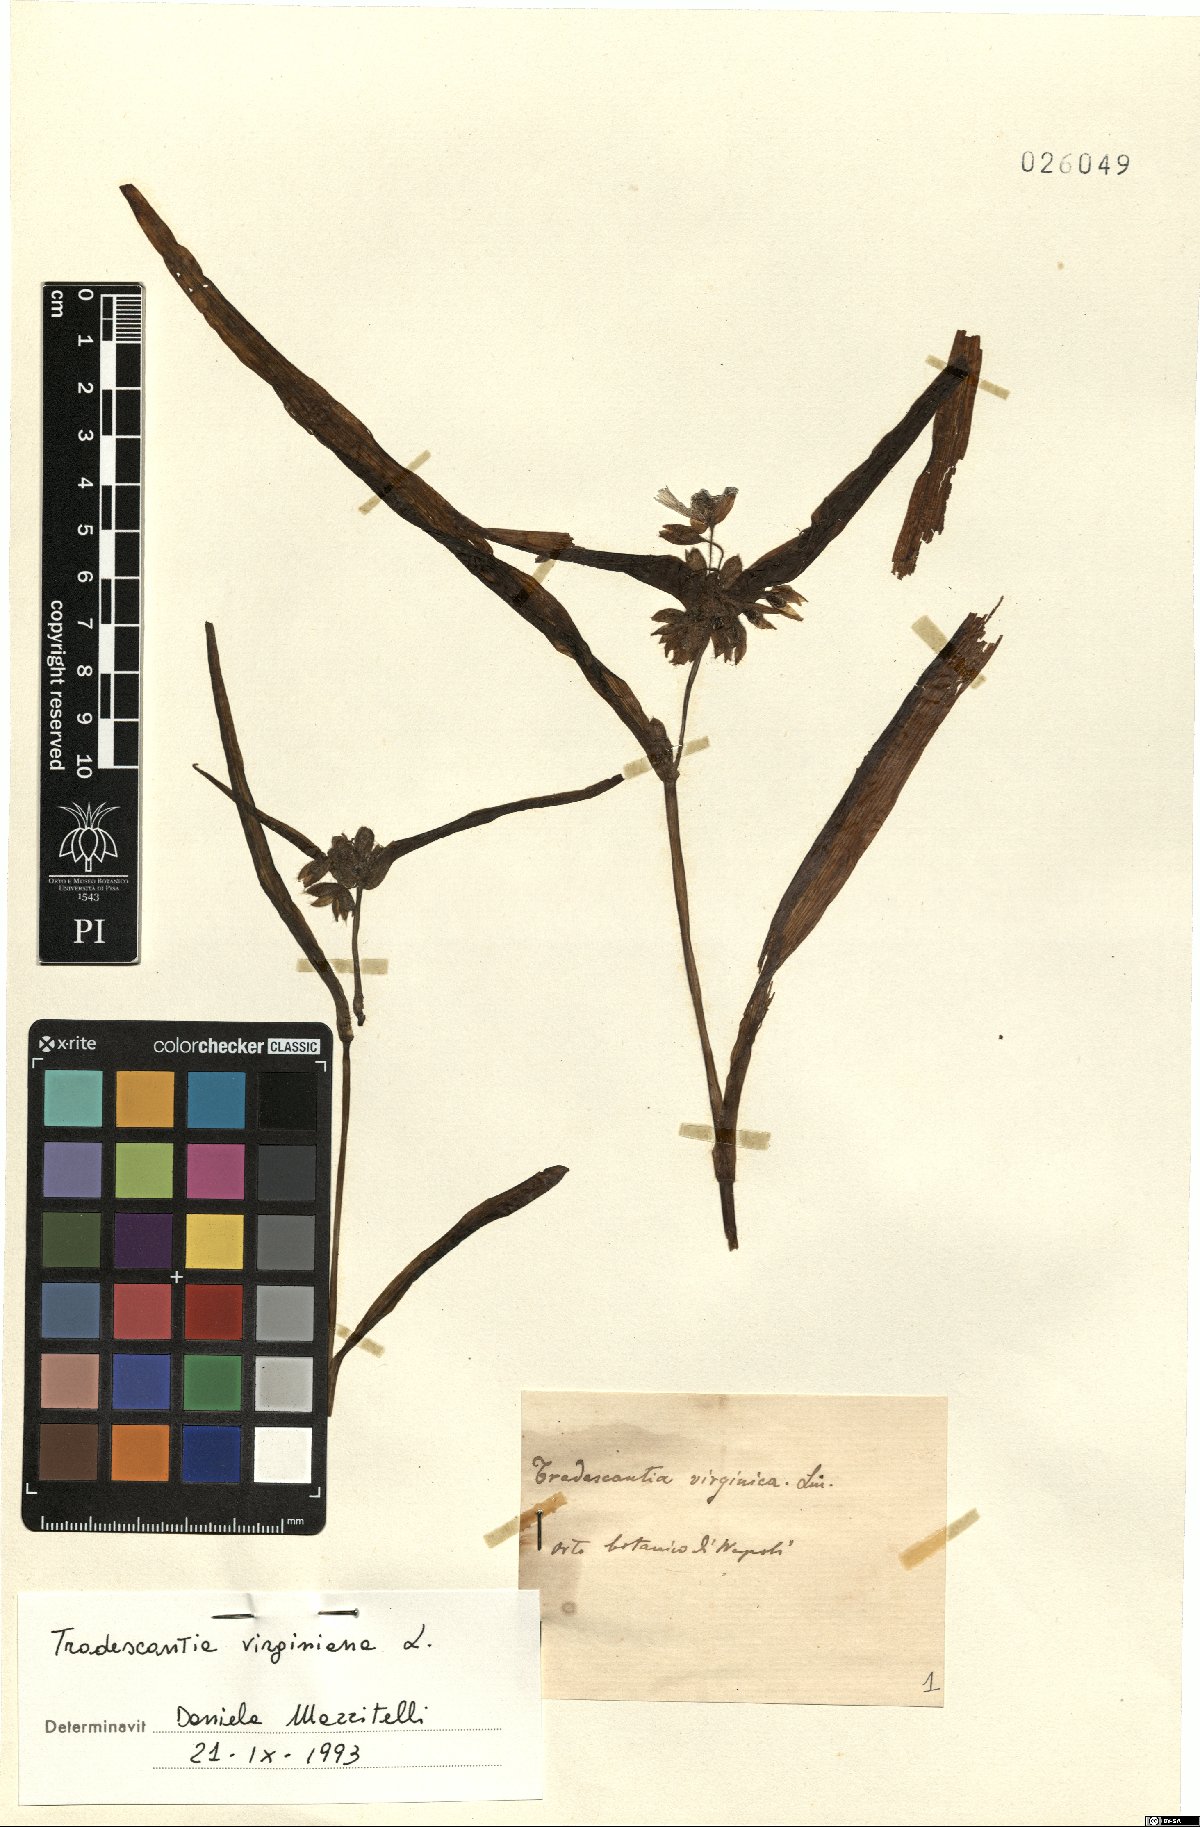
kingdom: Plantae
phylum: Tracheophyta
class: Liliopsida
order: Commelinales
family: Commelinaceae
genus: Tradescantia
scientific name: Tradescantia virginiana
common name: Spiderwort
